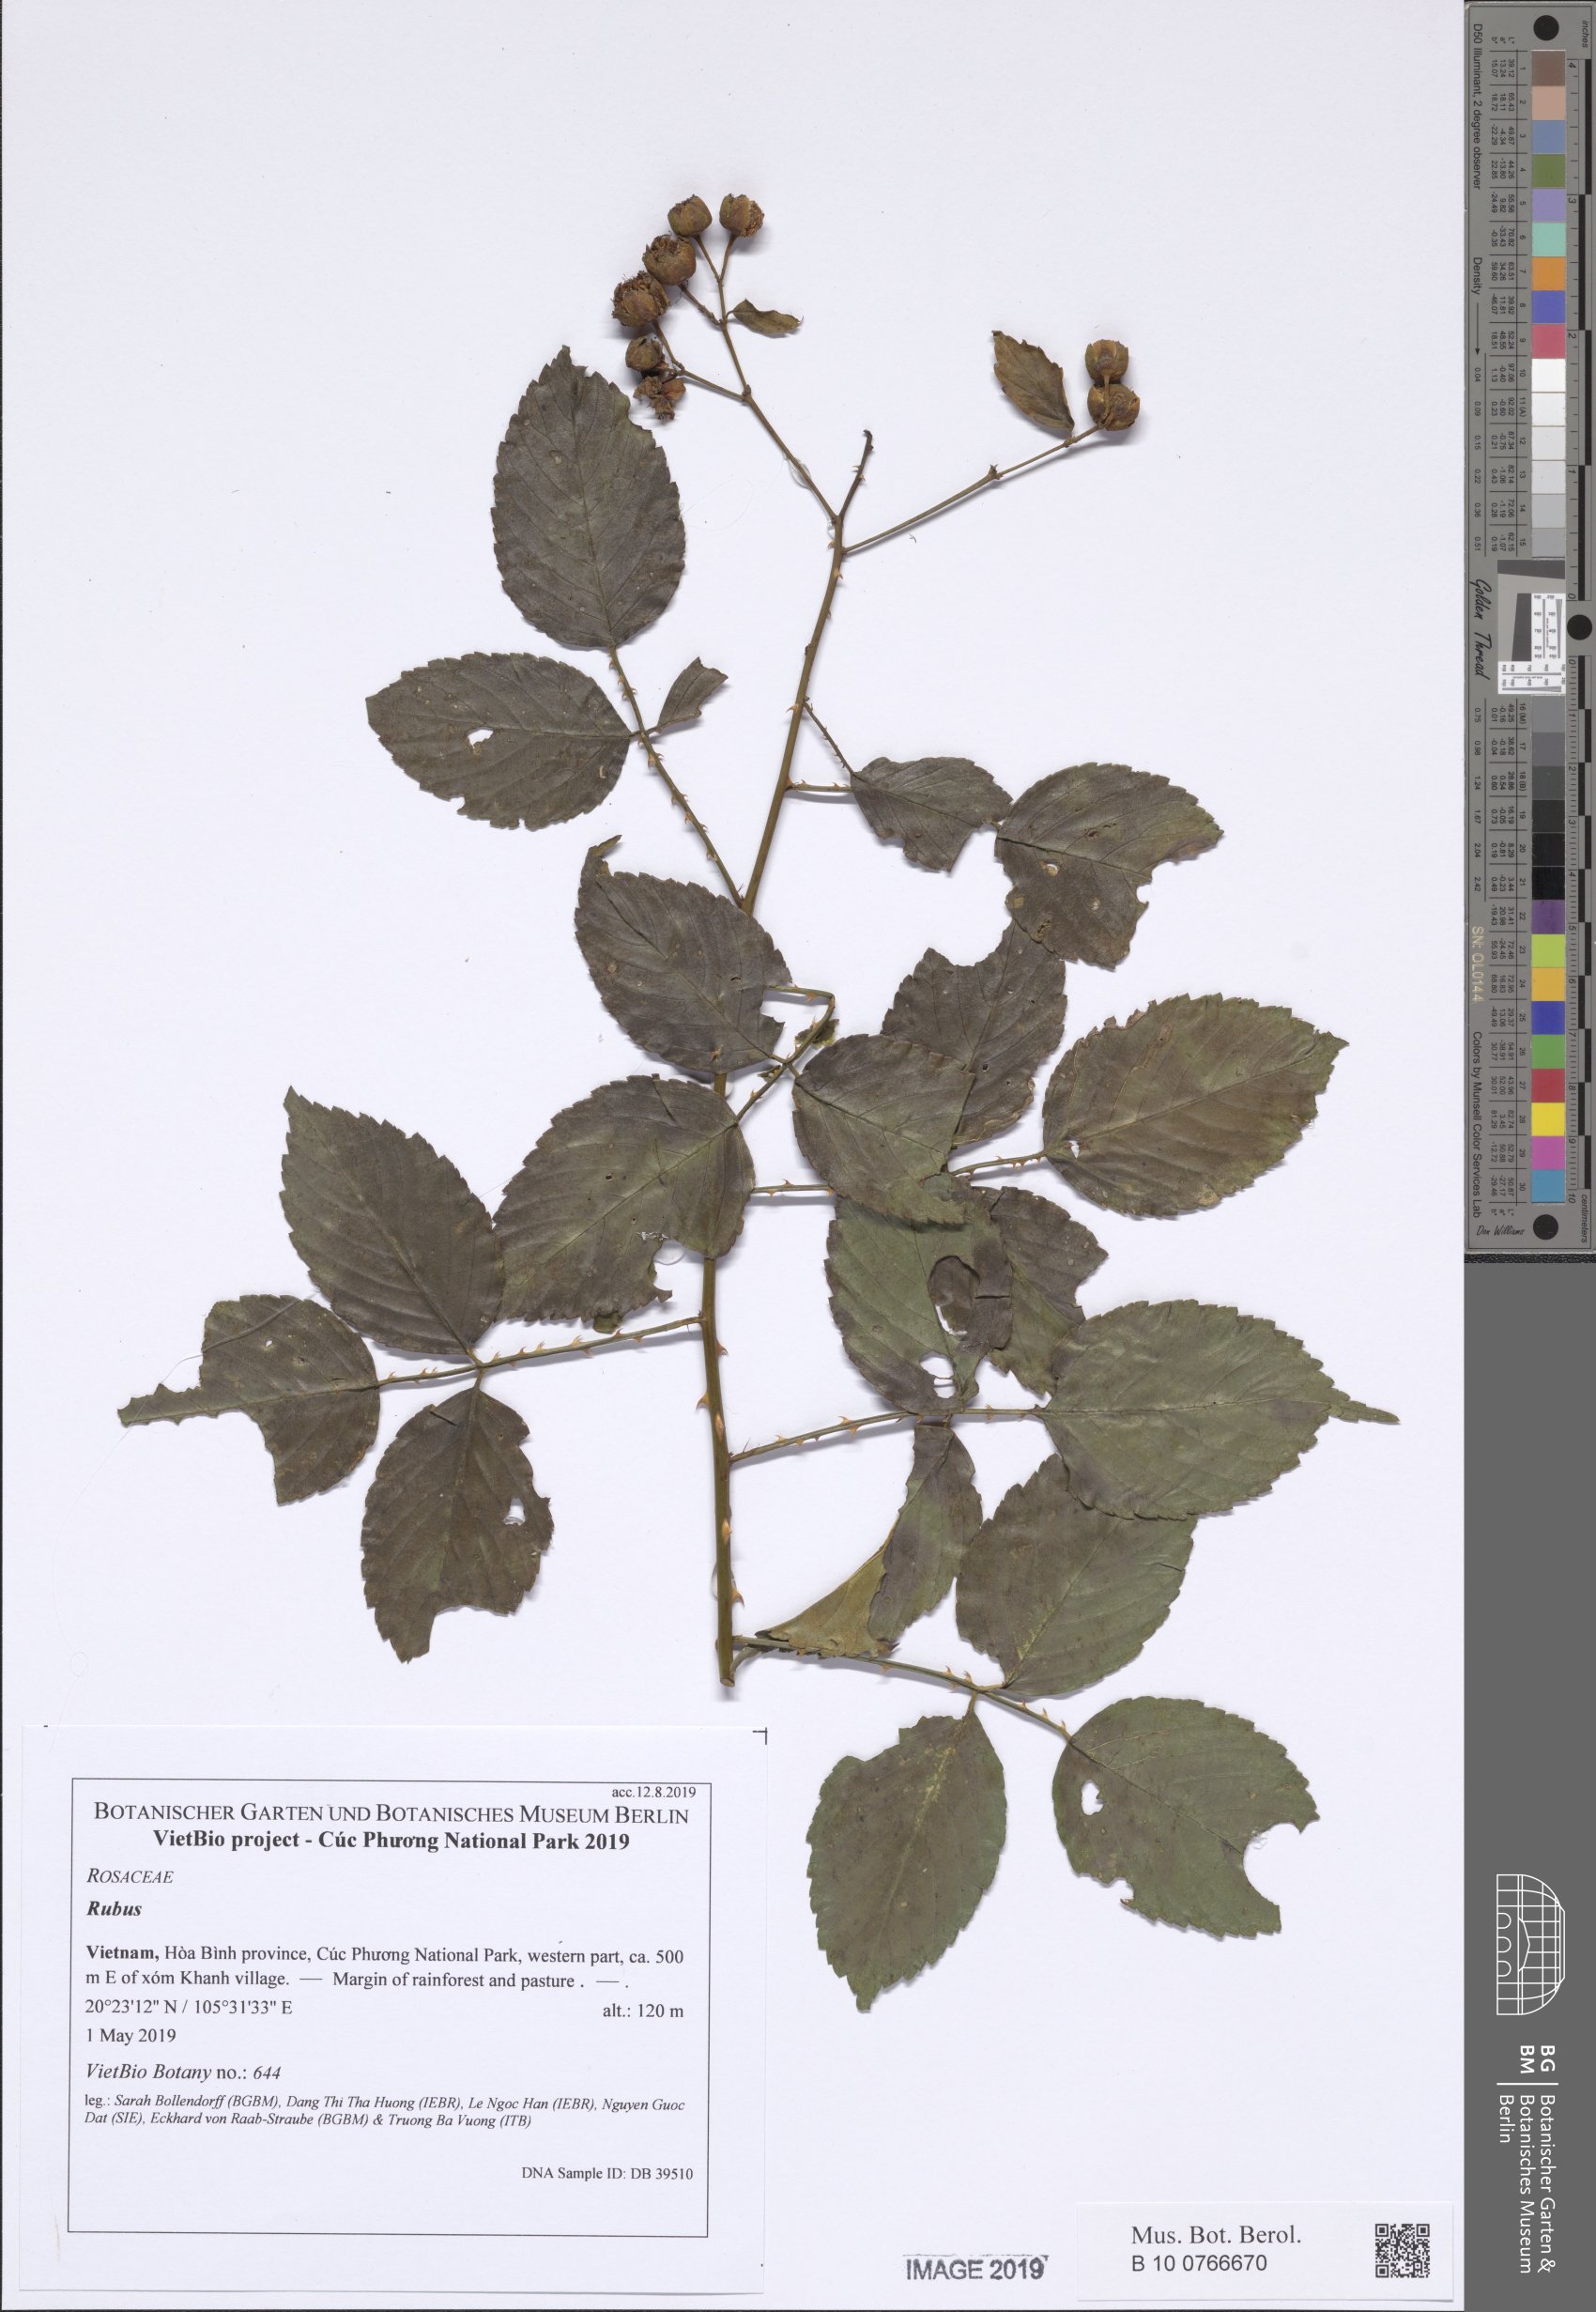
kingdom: Plantae
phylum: Tracheophyta
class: Magnoliopsida
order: Rosales
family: Rosaceae
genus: Rubus
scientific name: Rubus pentagonus
